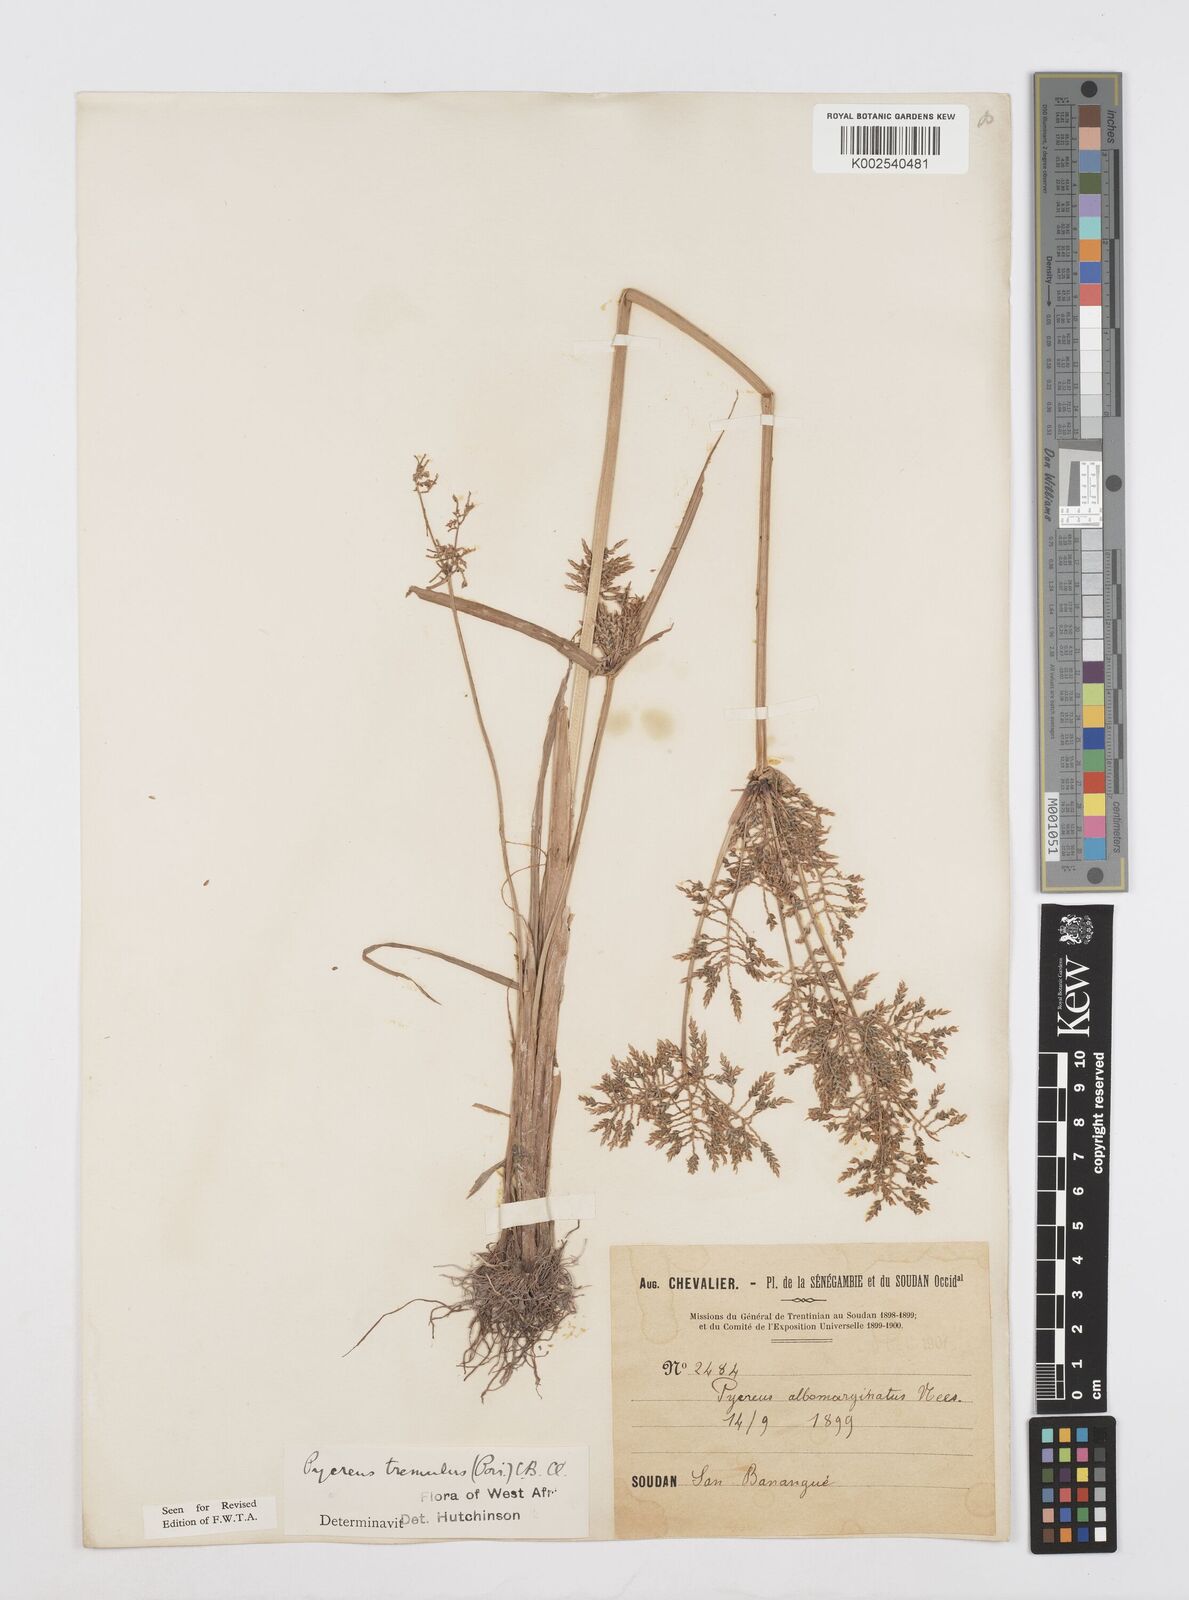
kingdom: Plantae
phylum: Tracheophyta
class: Liliopsida
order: Poales
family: Cyperaceae
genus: Cyperus
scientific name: Cyperus macrostachyos
